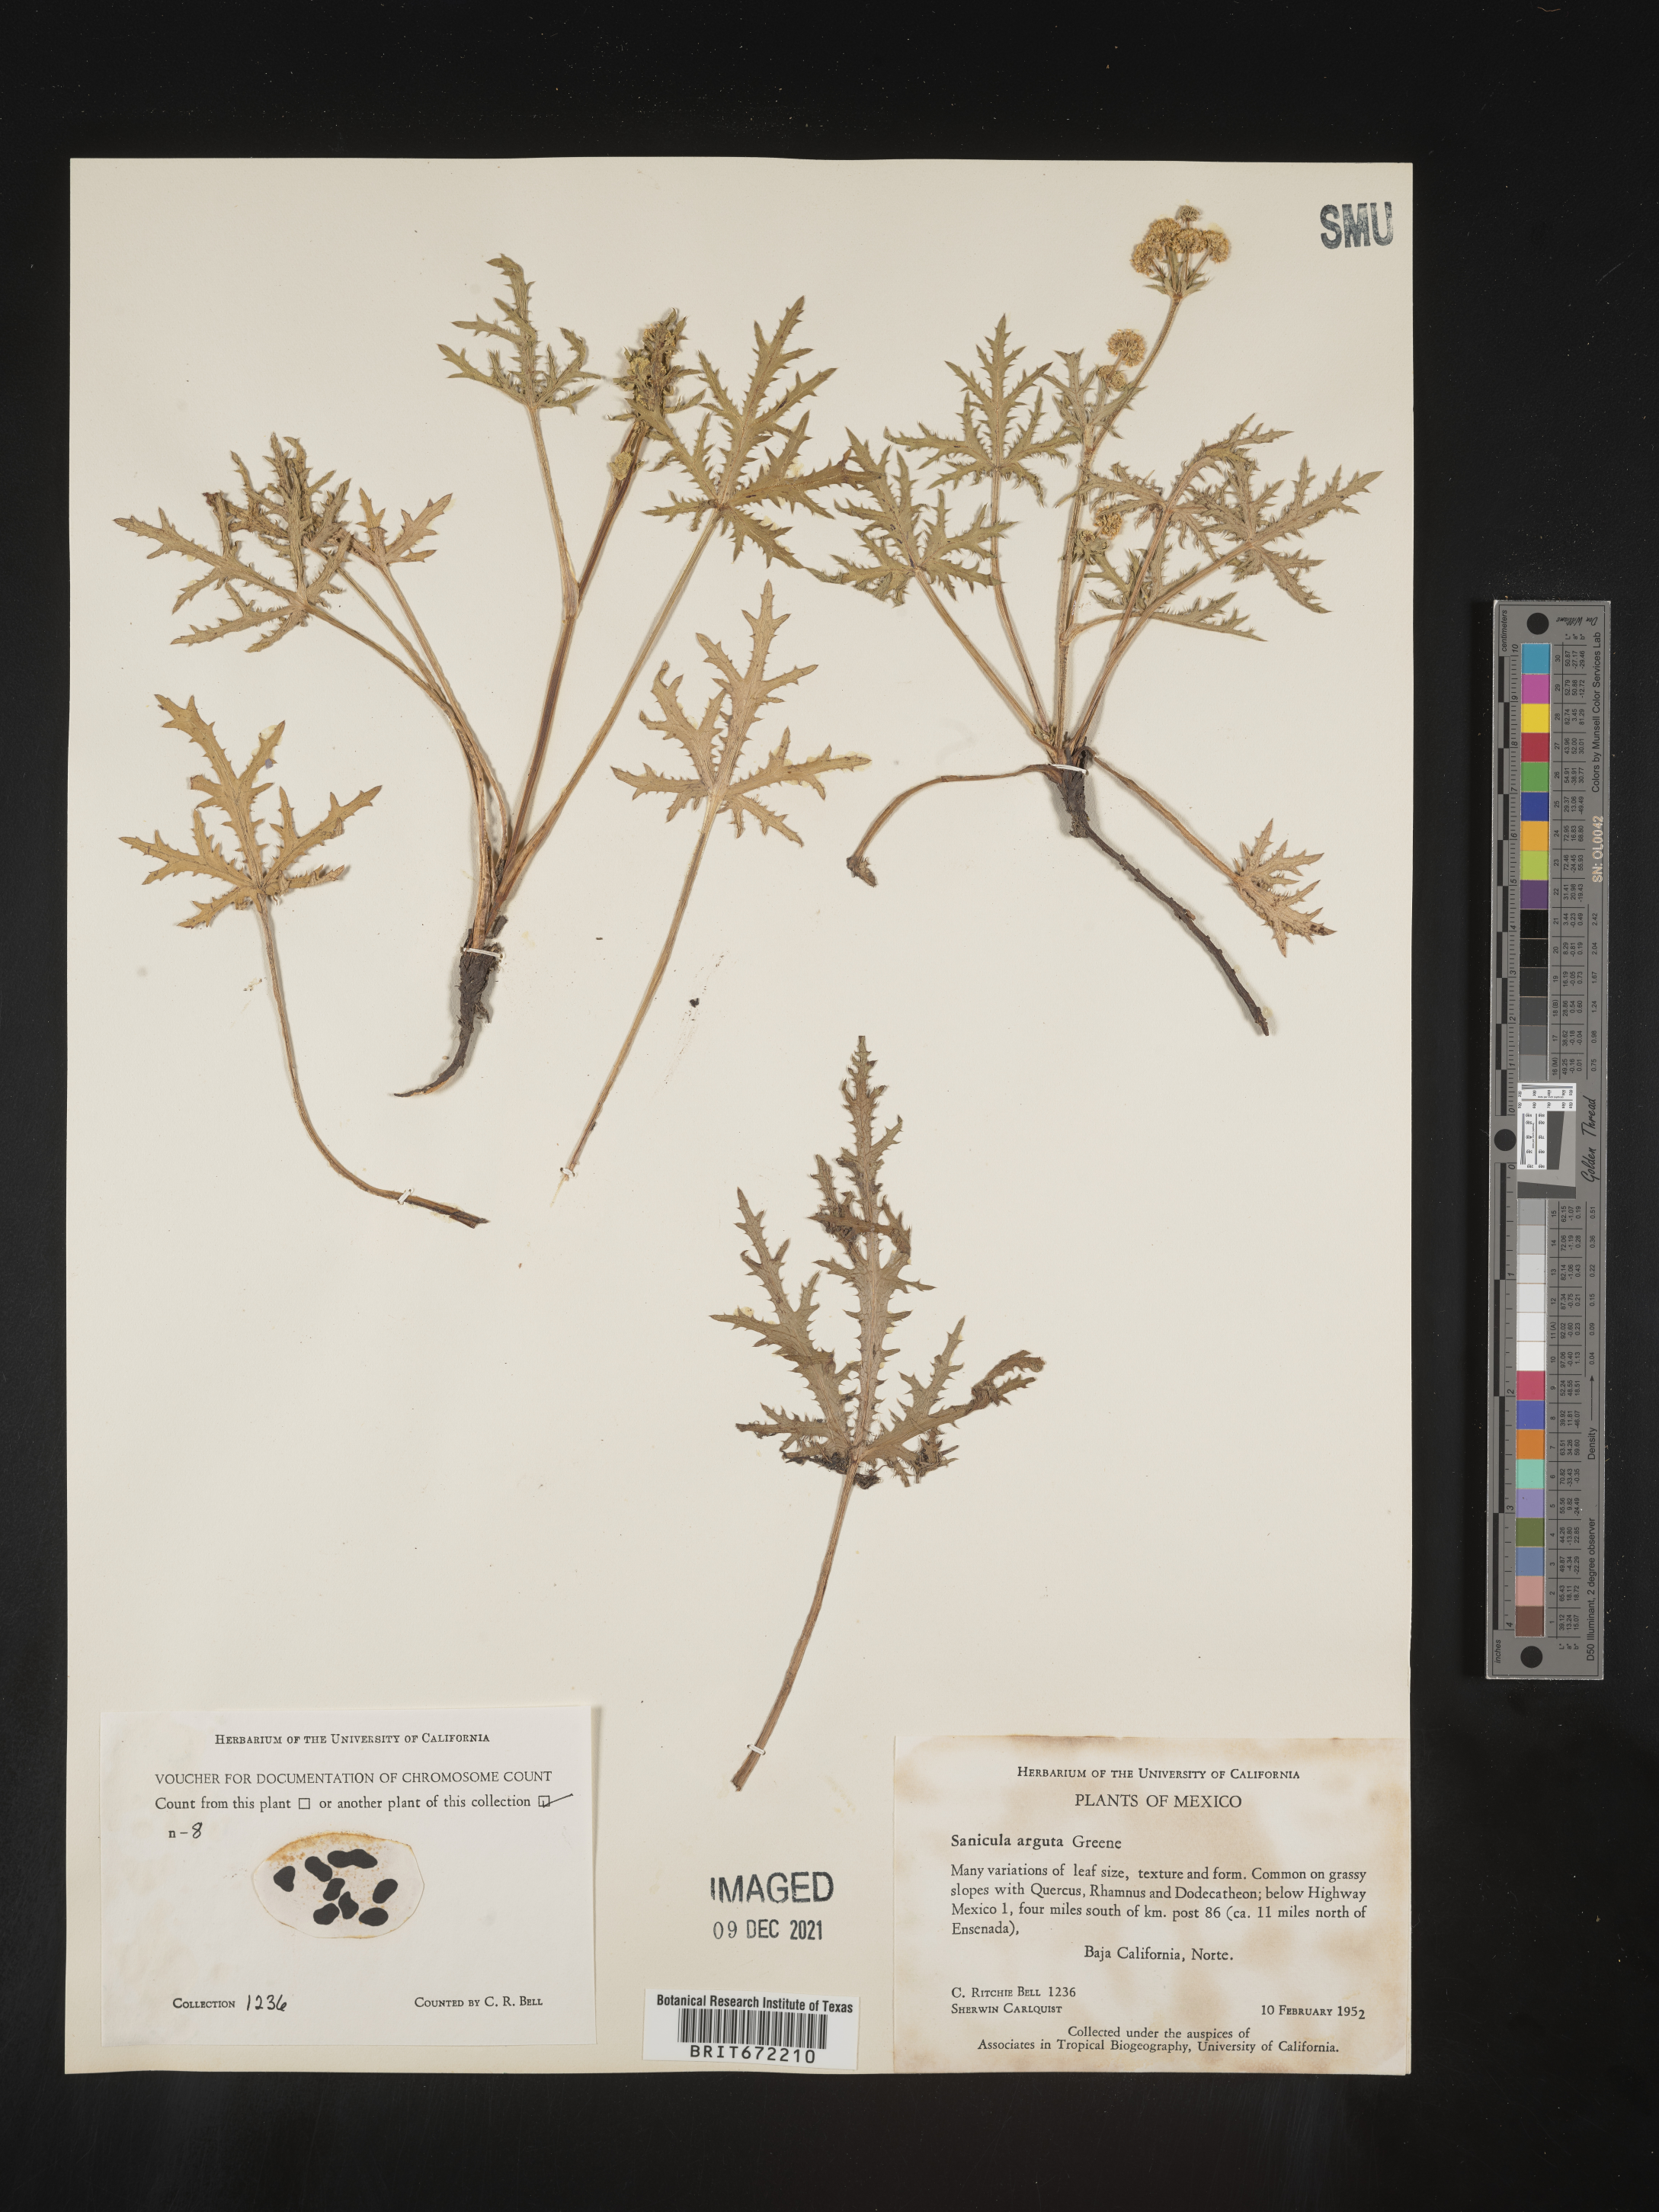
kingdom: Plantae
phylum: Tracheophyta
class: Magnoliopsida
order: Apiales
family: Apiaceae
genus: Sanicula
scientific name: Sanicula
